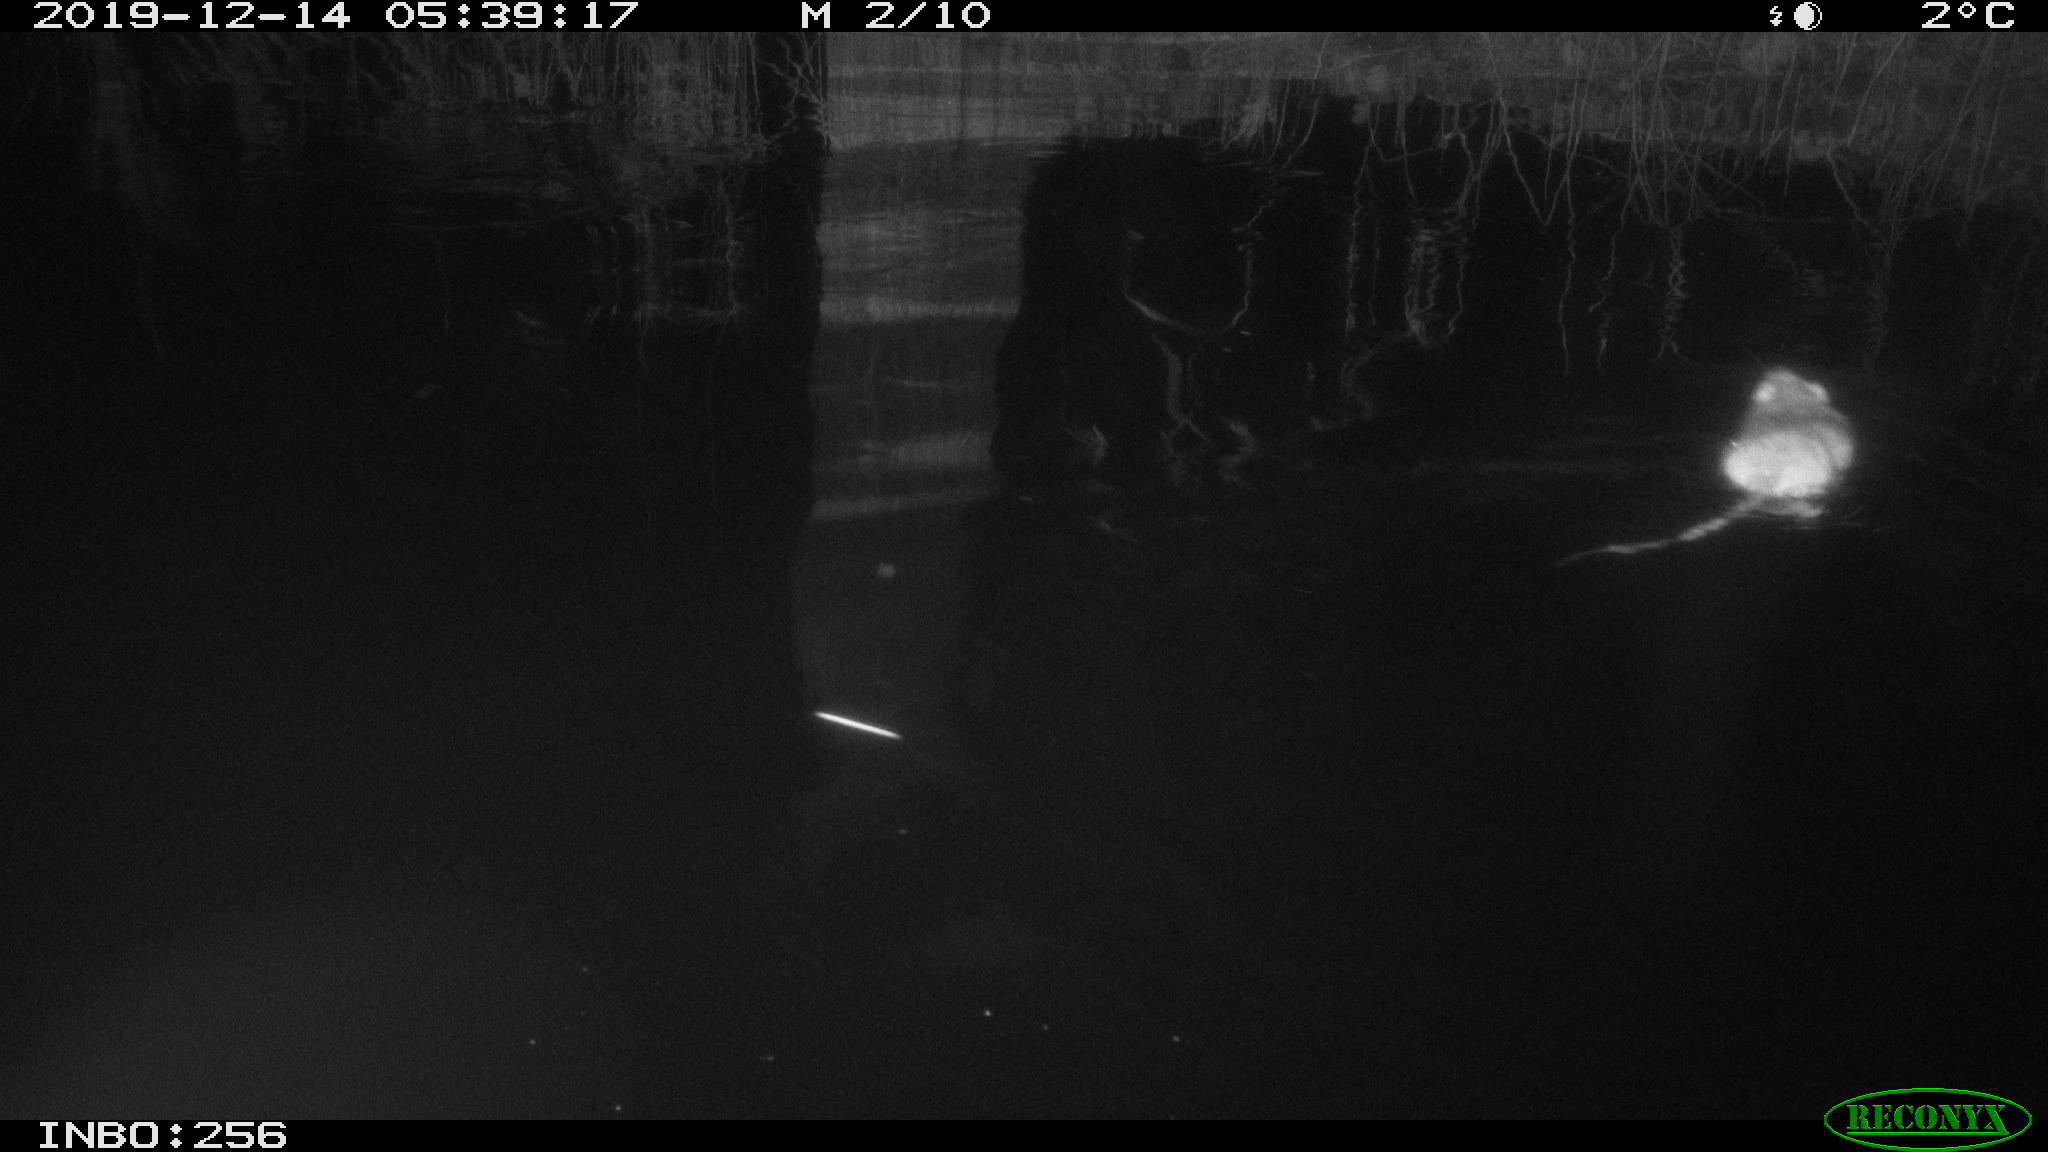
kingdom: Animalia
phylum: Chordata
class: Mammalia
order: Rodentia
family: Cricetidae
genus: Ondatra
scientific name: Ondatra zibethicus
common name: Muskrat
